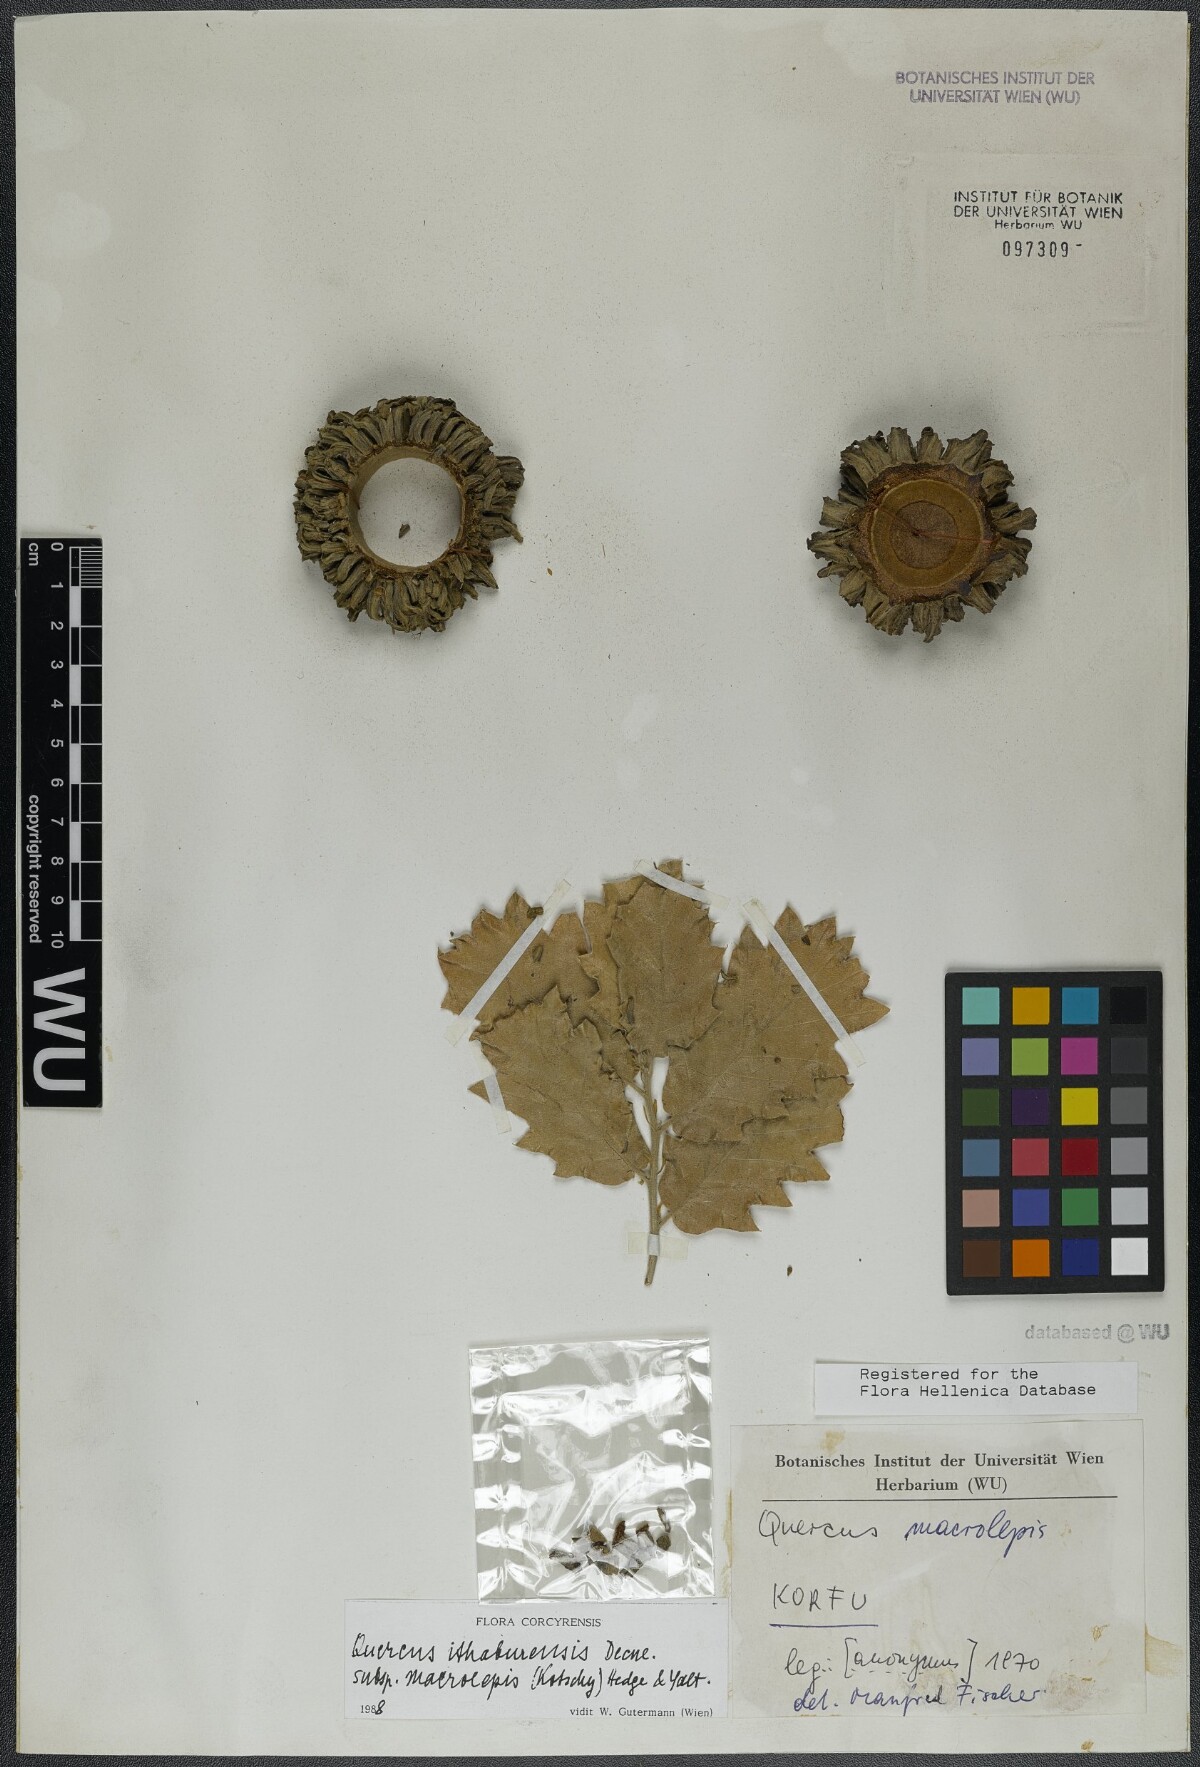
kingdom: Plantae
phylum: Tracheophyta
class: Magnoliopsida
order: Fagales
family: Fagaceae
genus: Quercus
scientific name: Quercus ithaburensis
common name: Tabor oak
